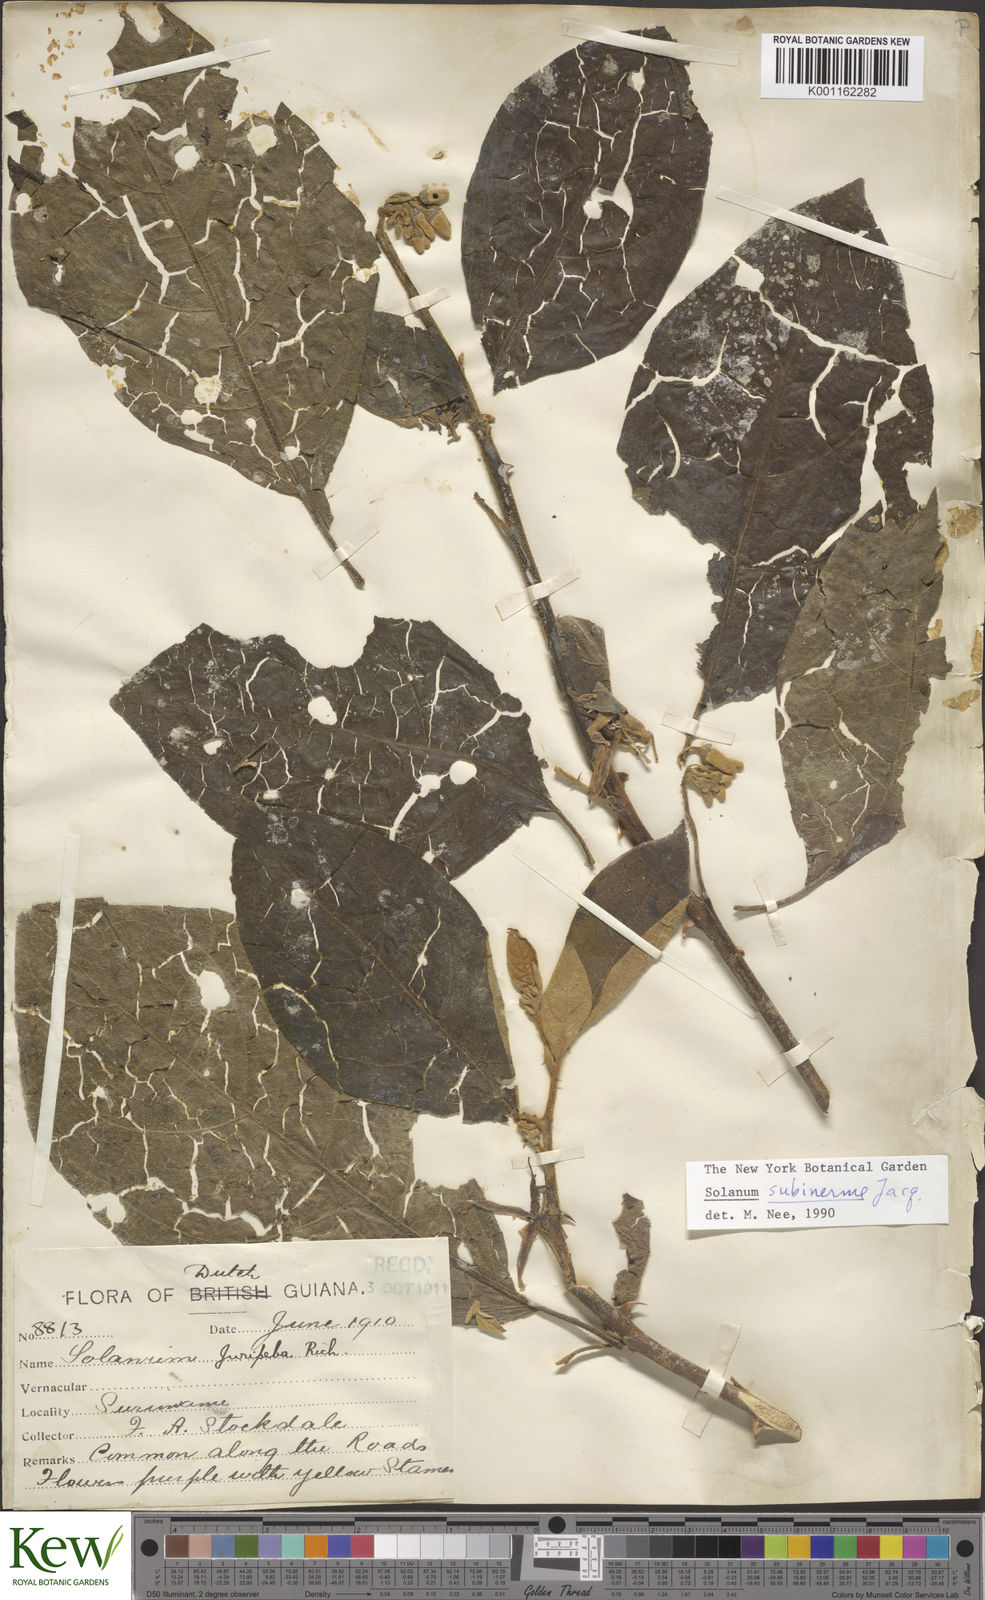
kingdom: Plantae
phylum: Tracheophyta
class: Magnoliopsida
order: Solanales
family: Solanaceae
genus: Solanum
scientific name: Solanum subinerme
